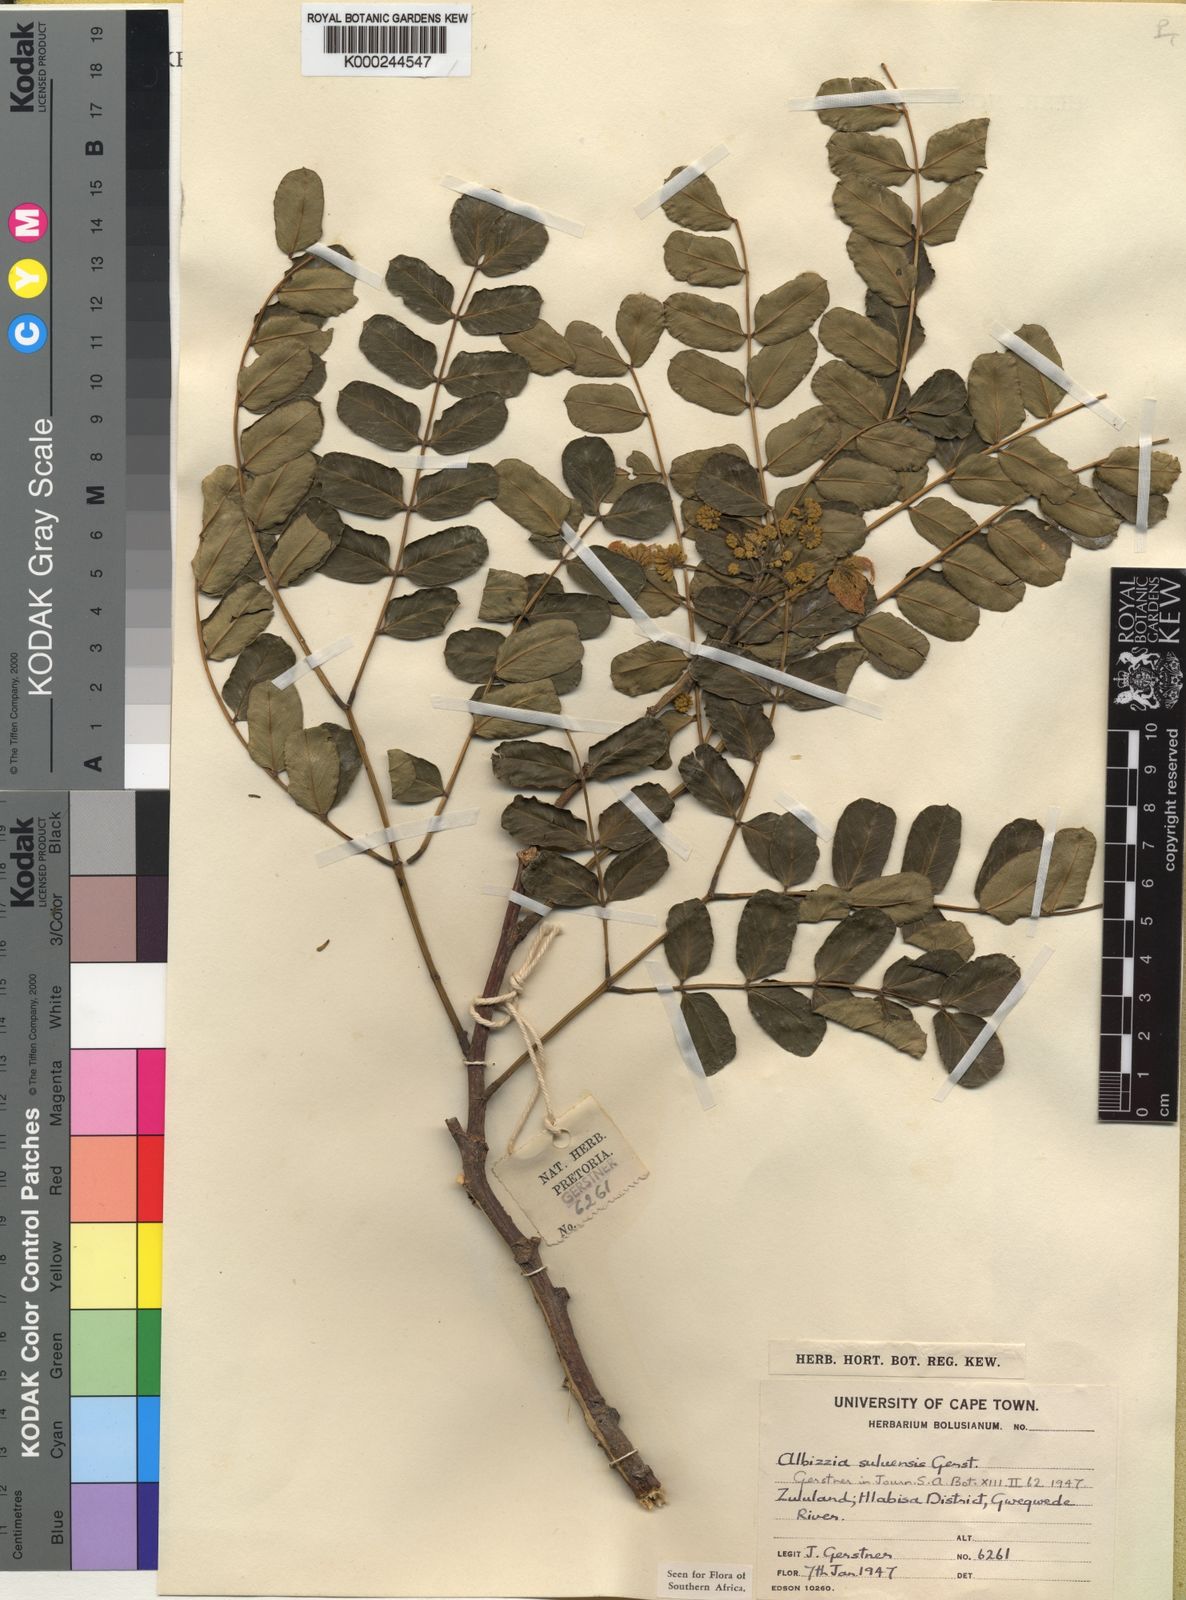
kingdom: Plantae
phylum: Tracheophyta
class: Magnoliopsida
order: Fabales
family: Fabaceae
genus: Albizia
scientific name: Albizia
